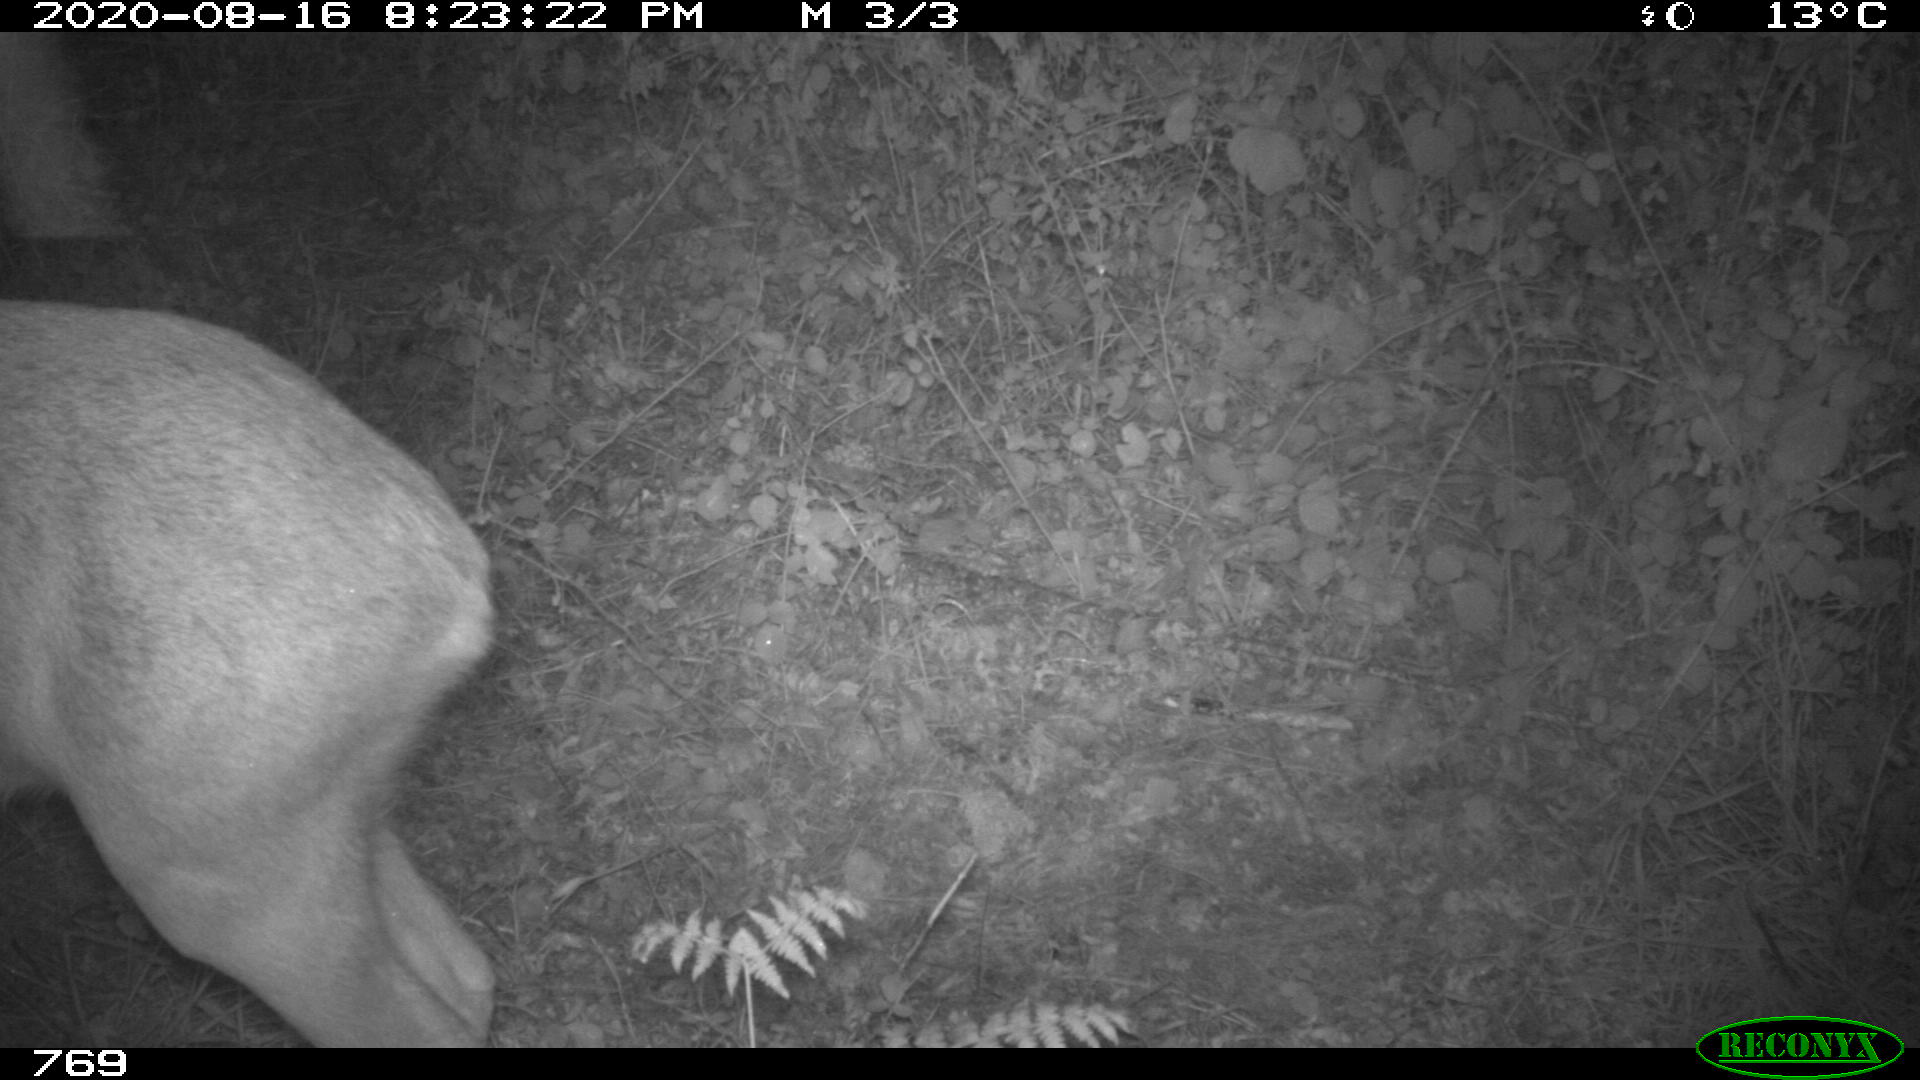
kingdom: Animalia
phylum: Chordata
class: Mammalia
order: Artiodactyla
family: Cervidae
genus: Capreolus
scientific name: Capreolus capreolus
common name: Western roe deer
